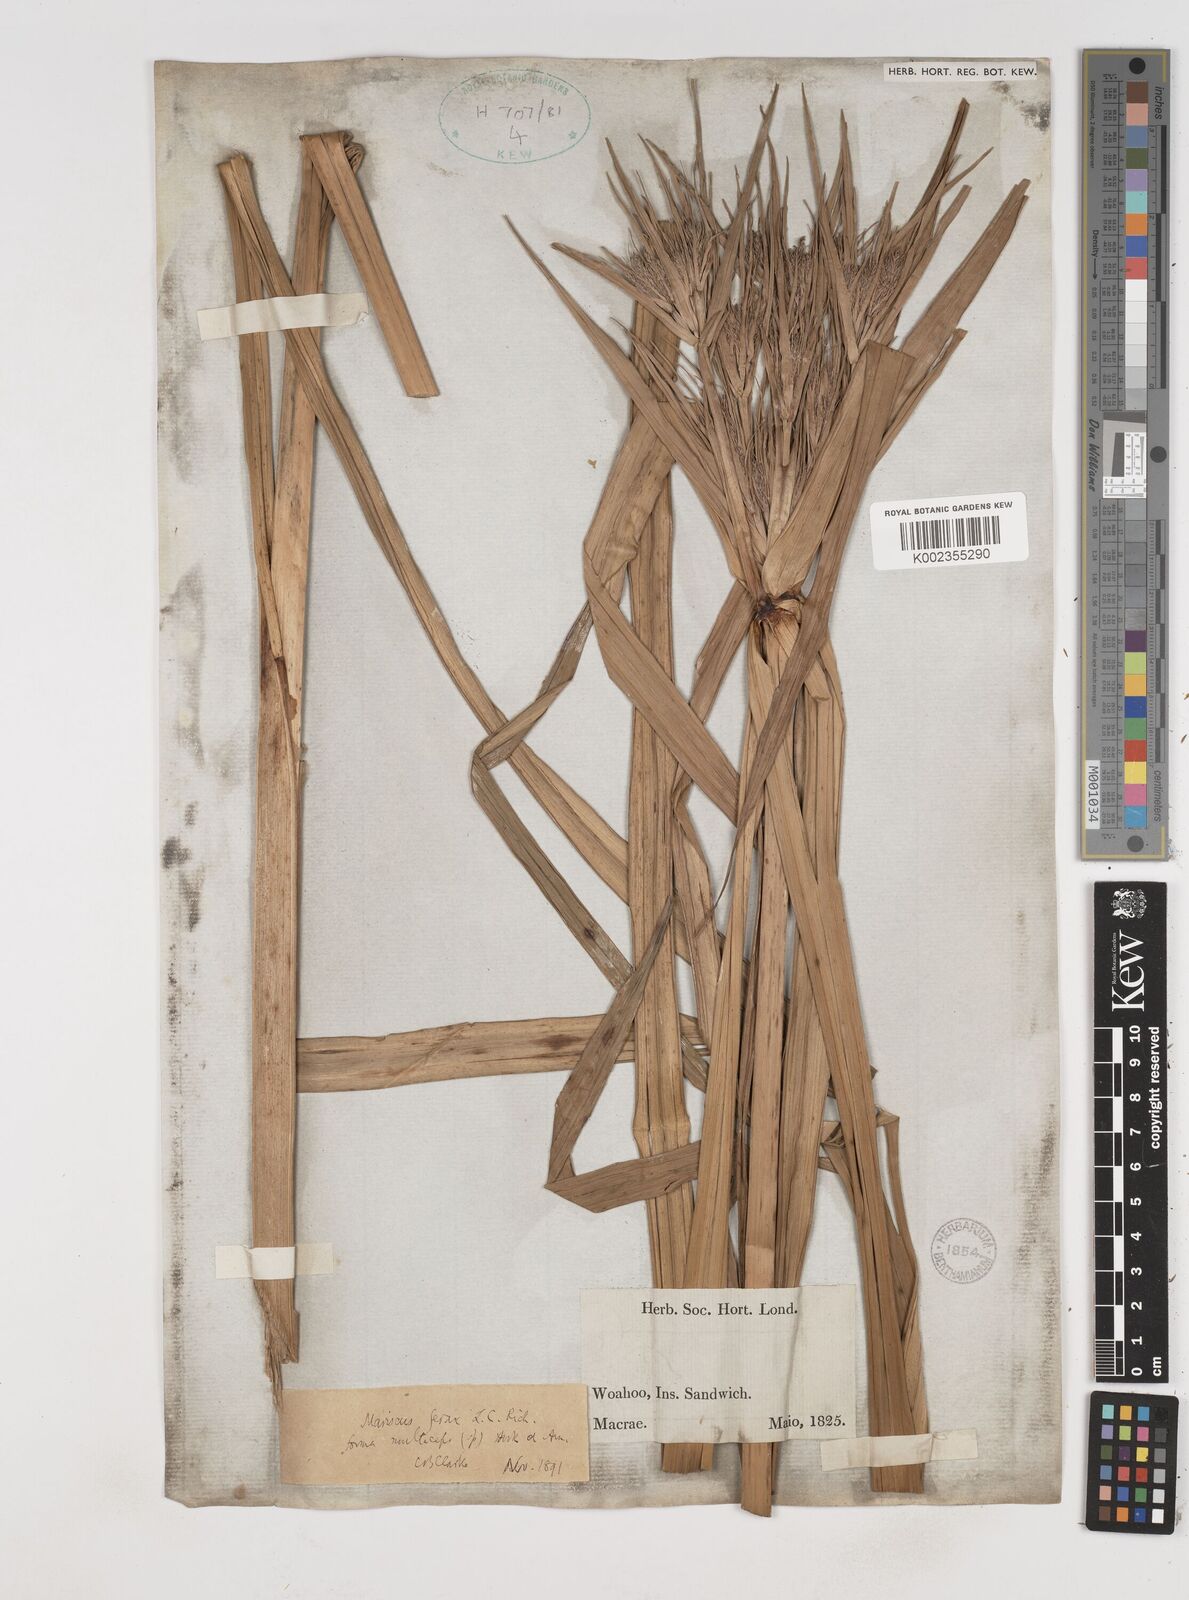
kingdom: Plantae
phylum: Tracheophyta
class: Liliopsida
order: Poales
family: Cyperaceae
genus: Cyperus
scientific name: Cyperus odoratus
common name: Fragrant flatsedge
